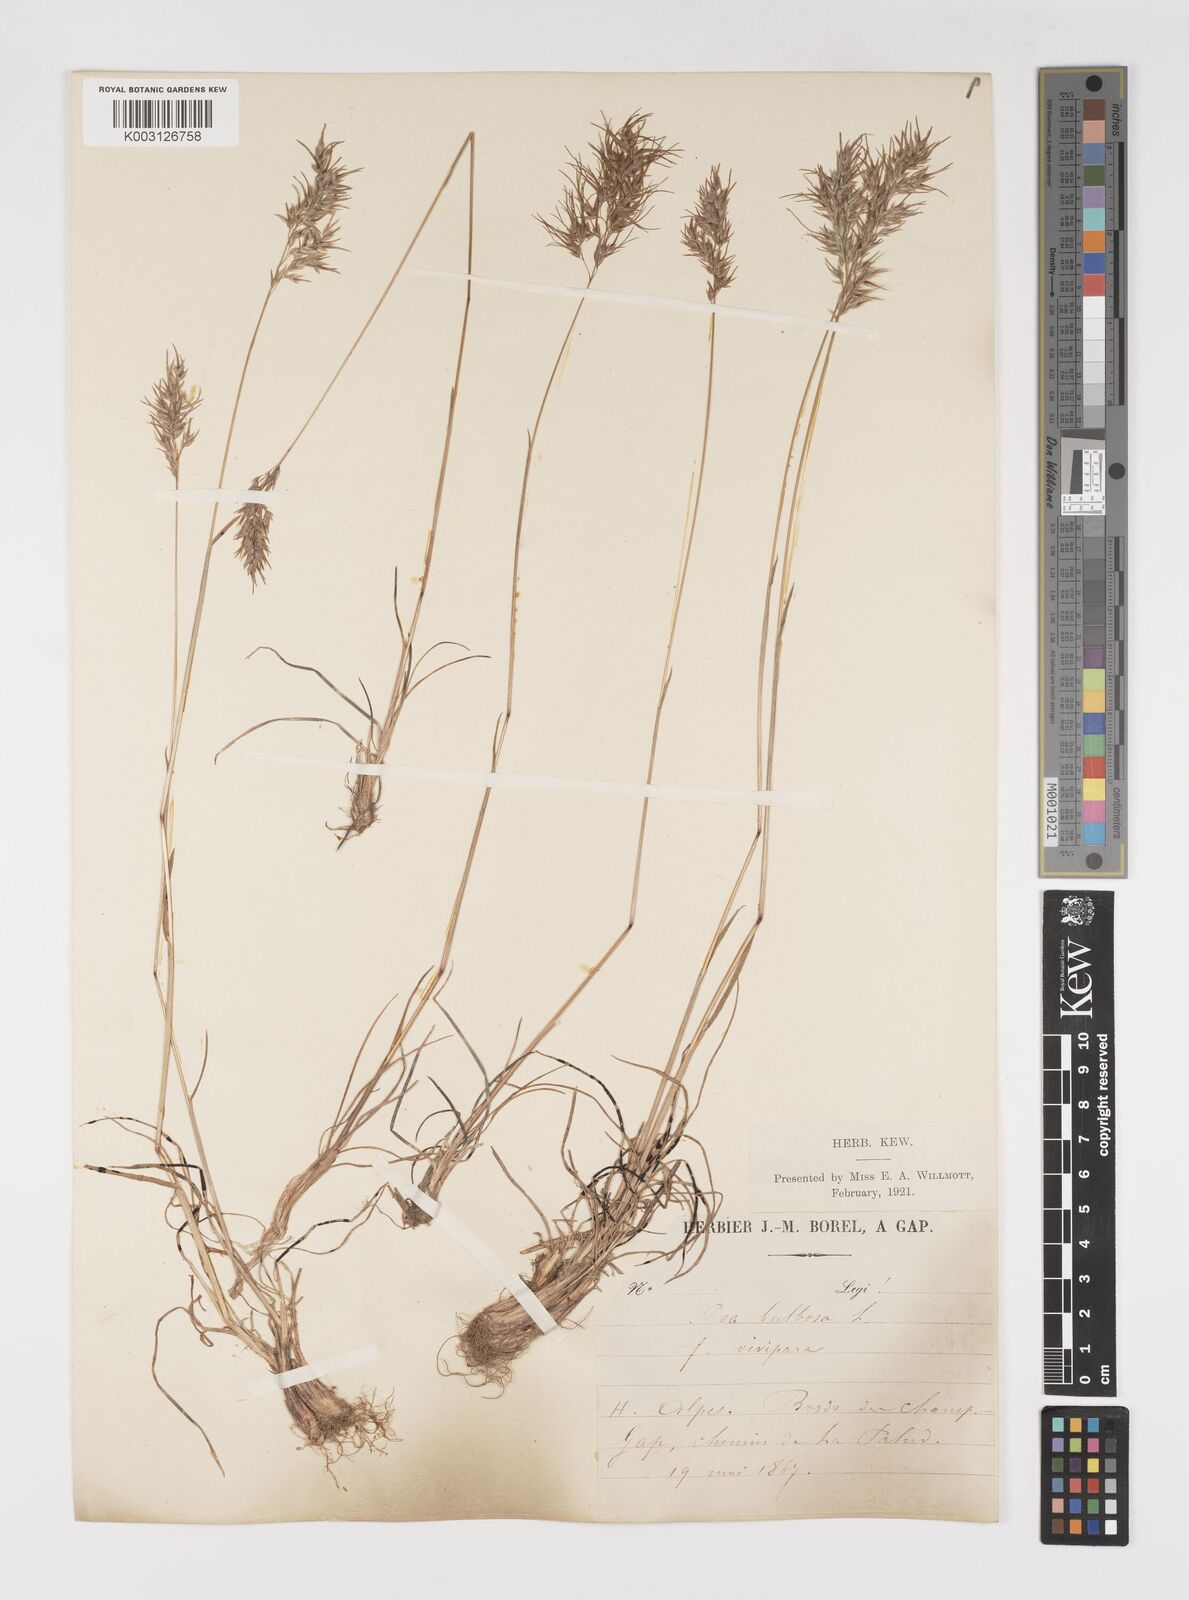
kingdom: Plantae
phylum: Tracheophyta
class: Liliopsida
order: Poales
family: Poaceae
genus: Poa
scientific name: Poa bulbosa
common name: Bulbous bluegrass
